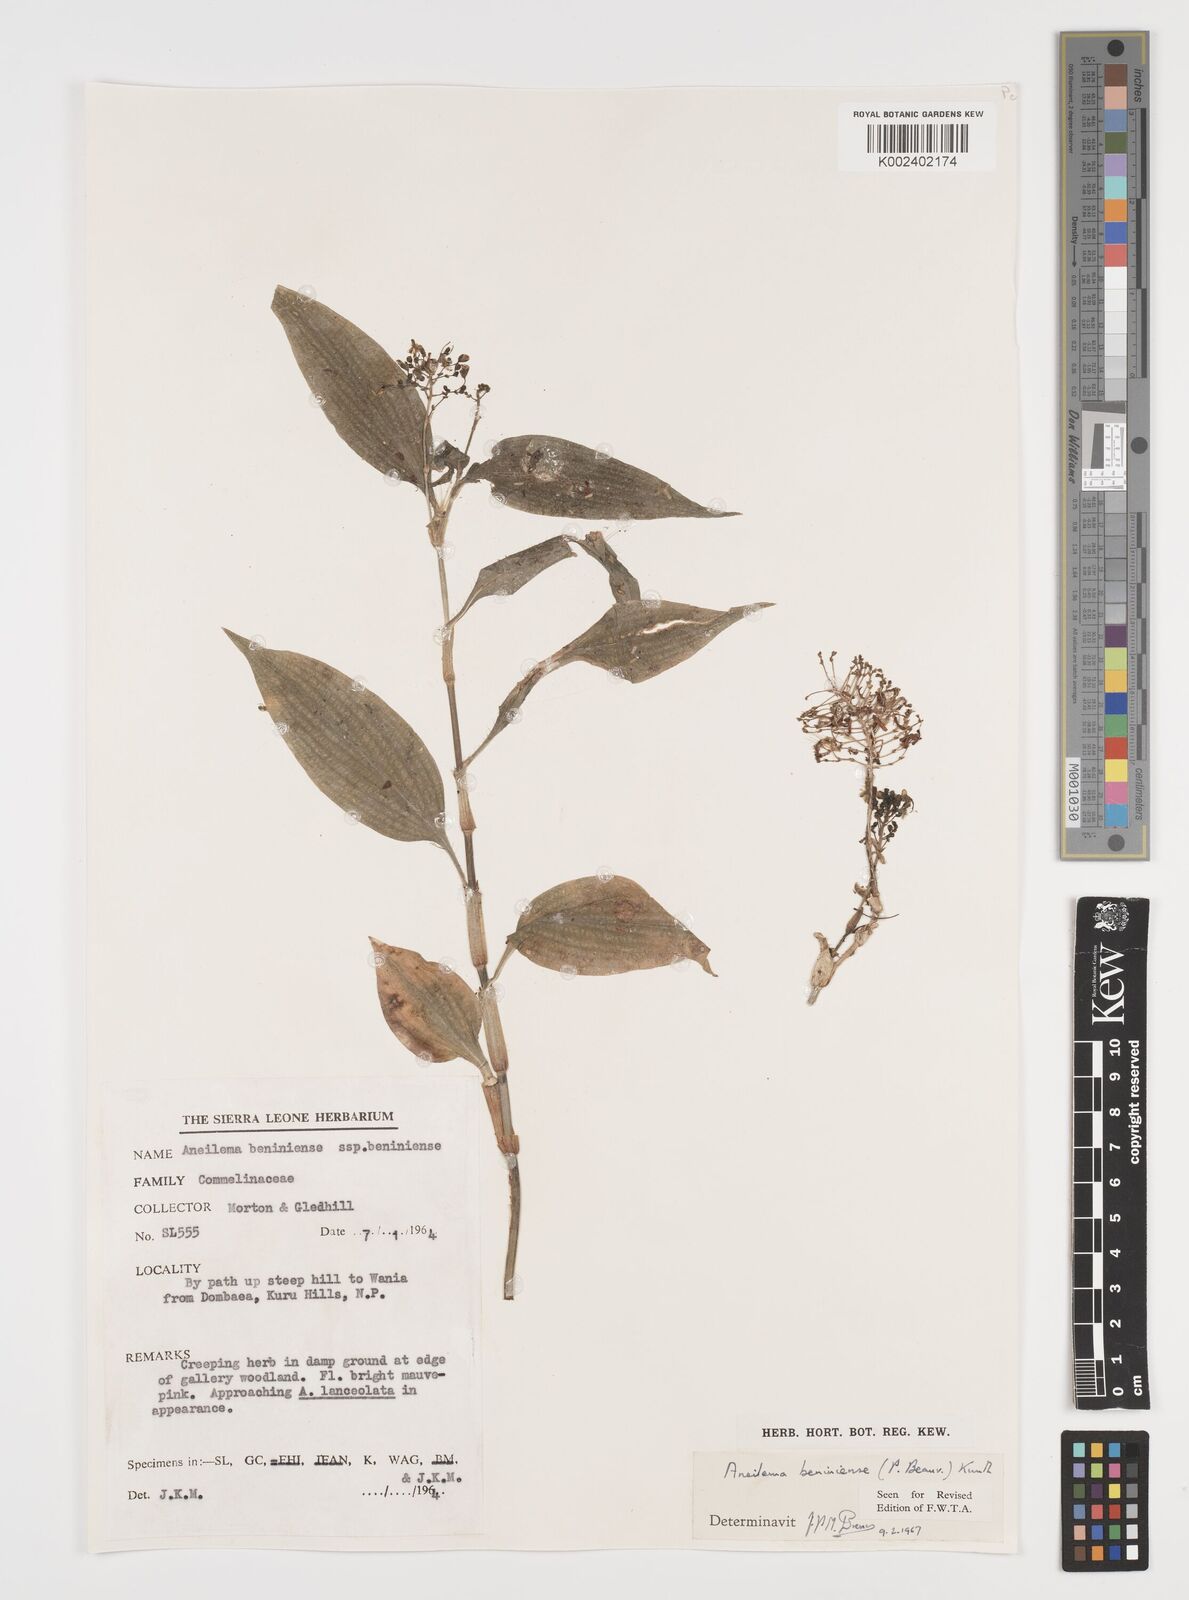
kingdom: Plantae
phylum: Tracheophyta
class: Liliopsida
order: Commelinales
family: Commelinaceae
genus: Aneilema
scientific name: Aneilema beniniense
